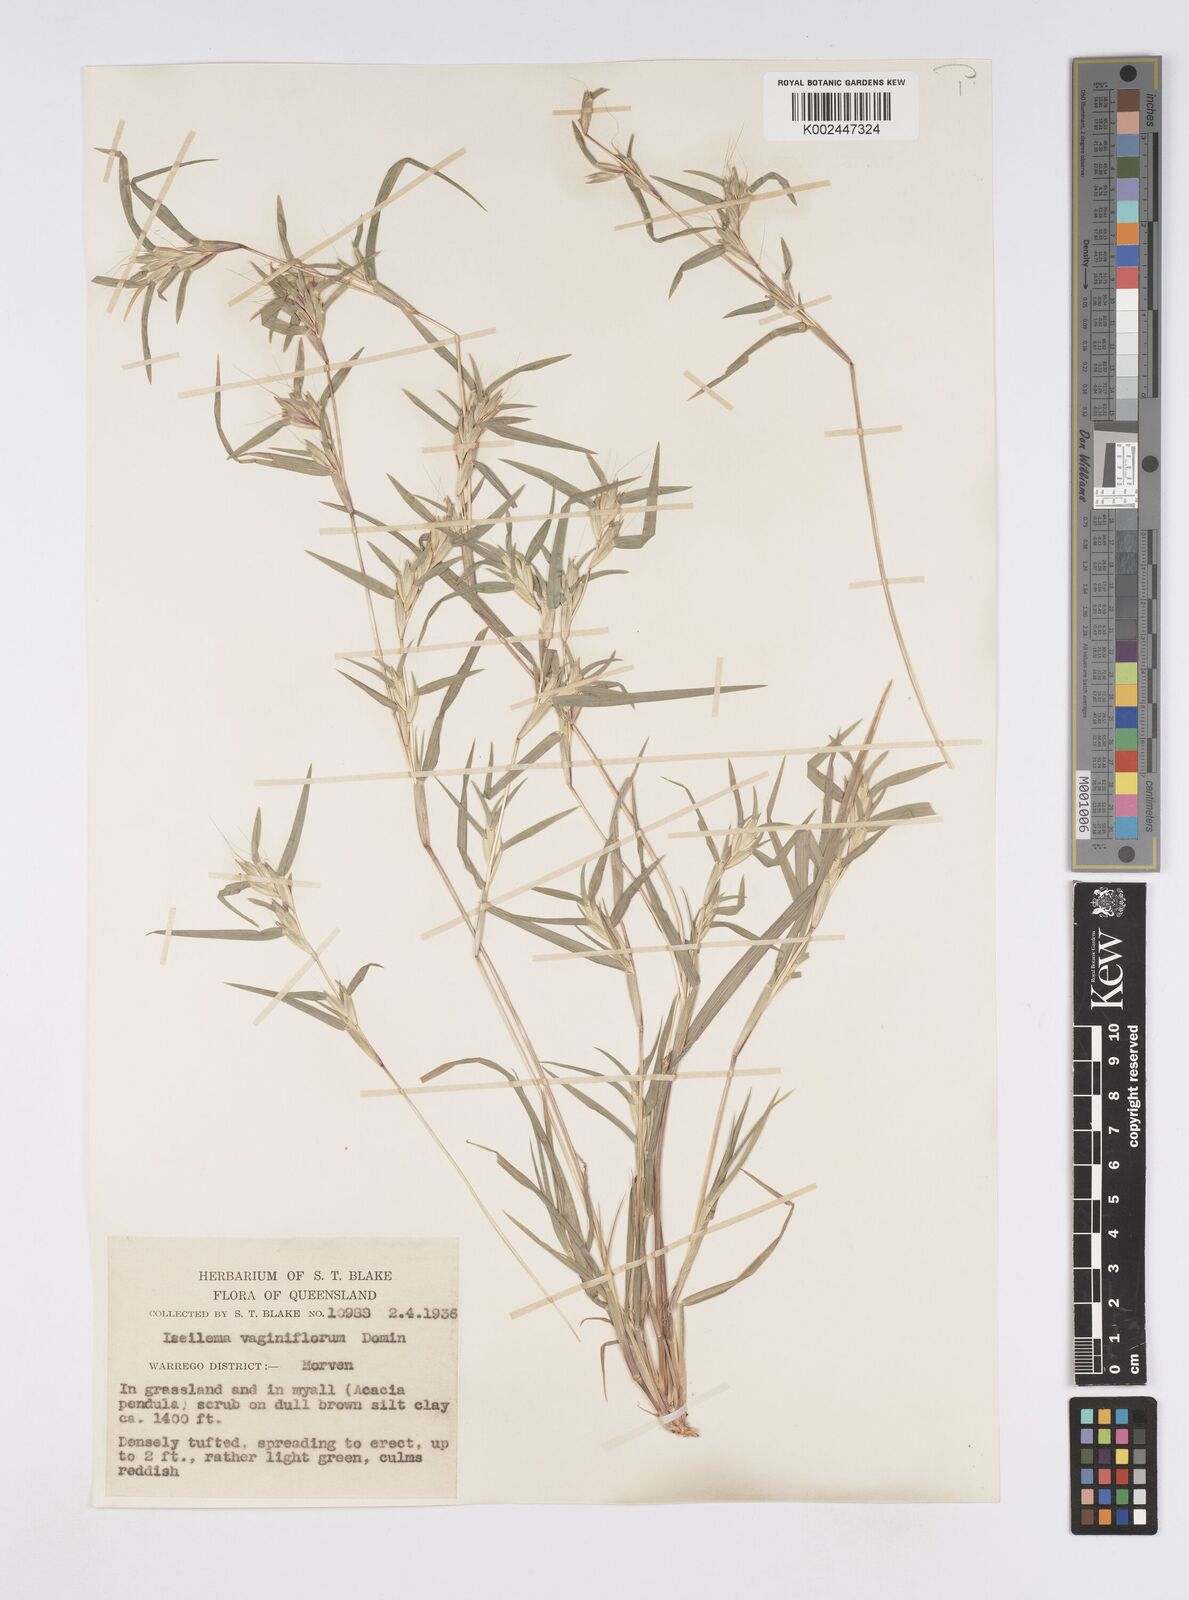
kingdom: Plantae
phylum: Tracheophyta
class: Liliopsida
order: Poales
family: Poaceae
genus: Iseilema
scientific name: Iseilema vaginiflorum
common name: Red flinders grass
